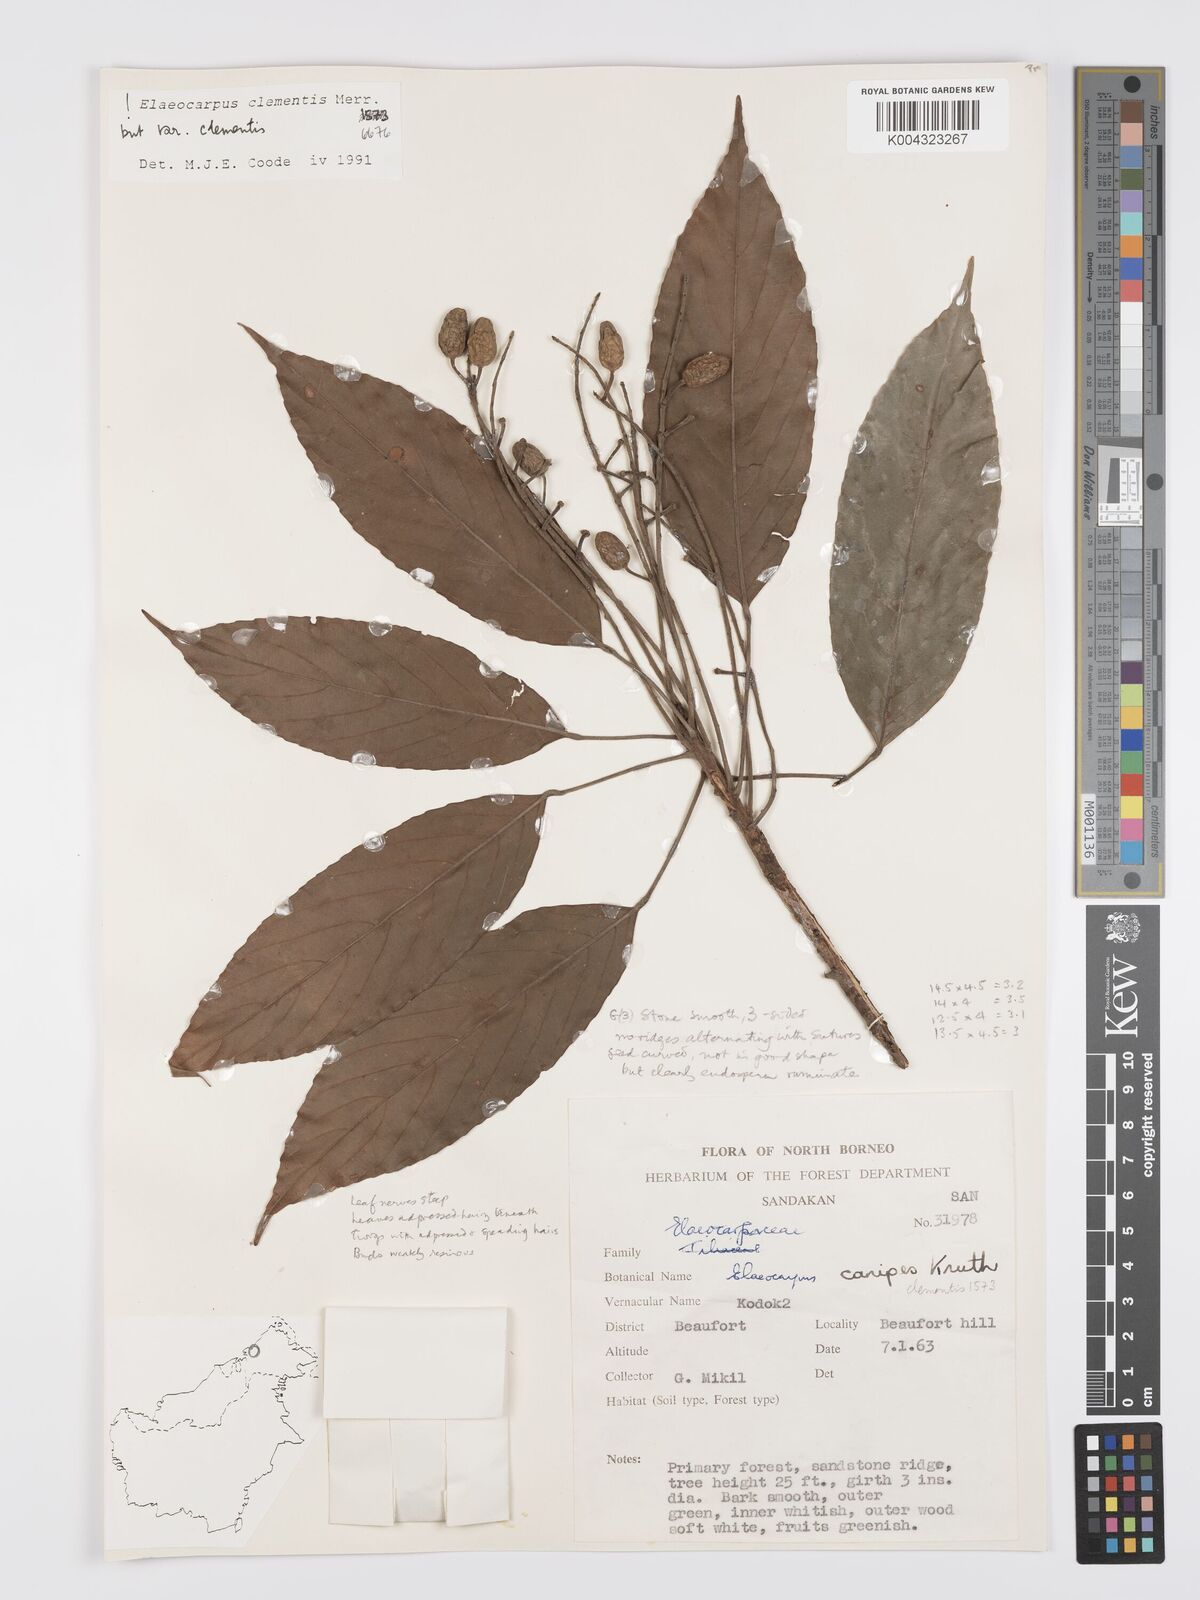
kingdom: Plantae
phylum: Tracheophyta
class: Magnoliopsida
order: Oxalidales
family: Elaeocarpaceae
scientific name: Elaeocarpaceae
